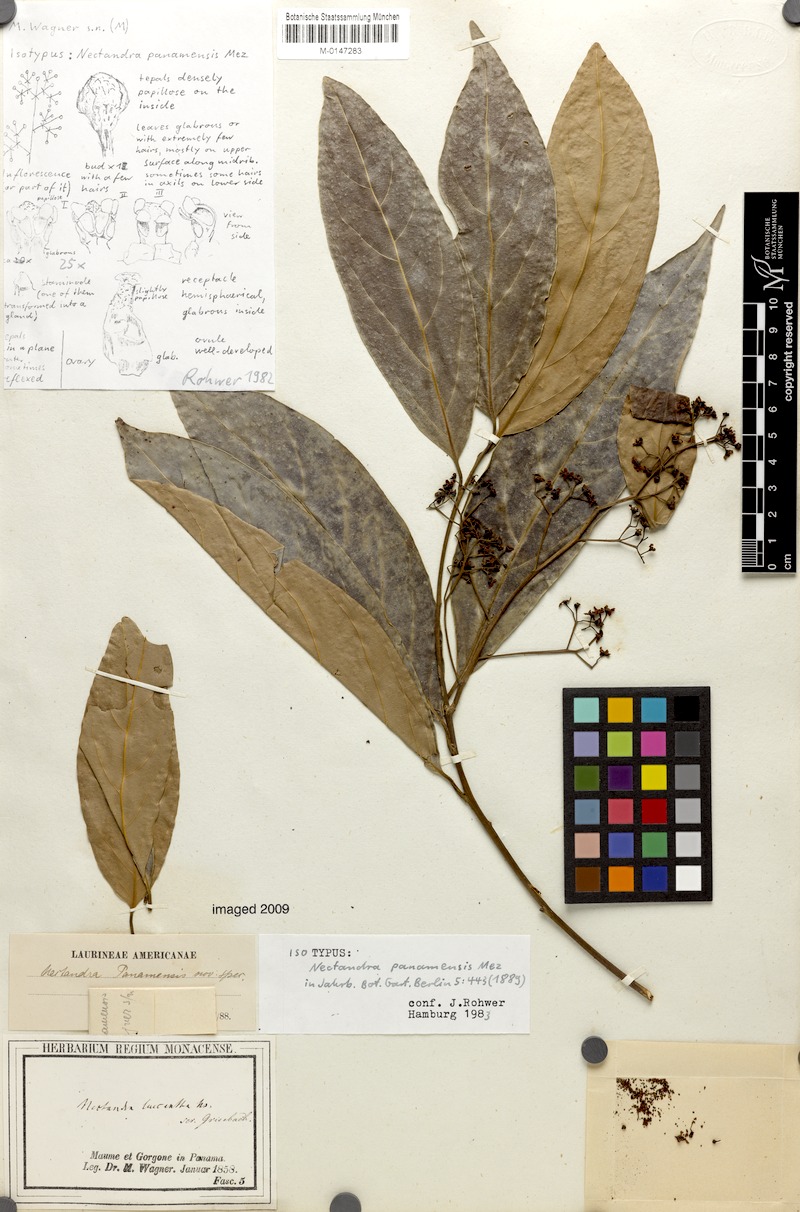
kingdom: Plantae
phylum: Tracheophyta
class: Magnoliopsida
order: Laurales
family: Lauraceae
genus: Nectandra
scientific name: Nectandra turbacensis
